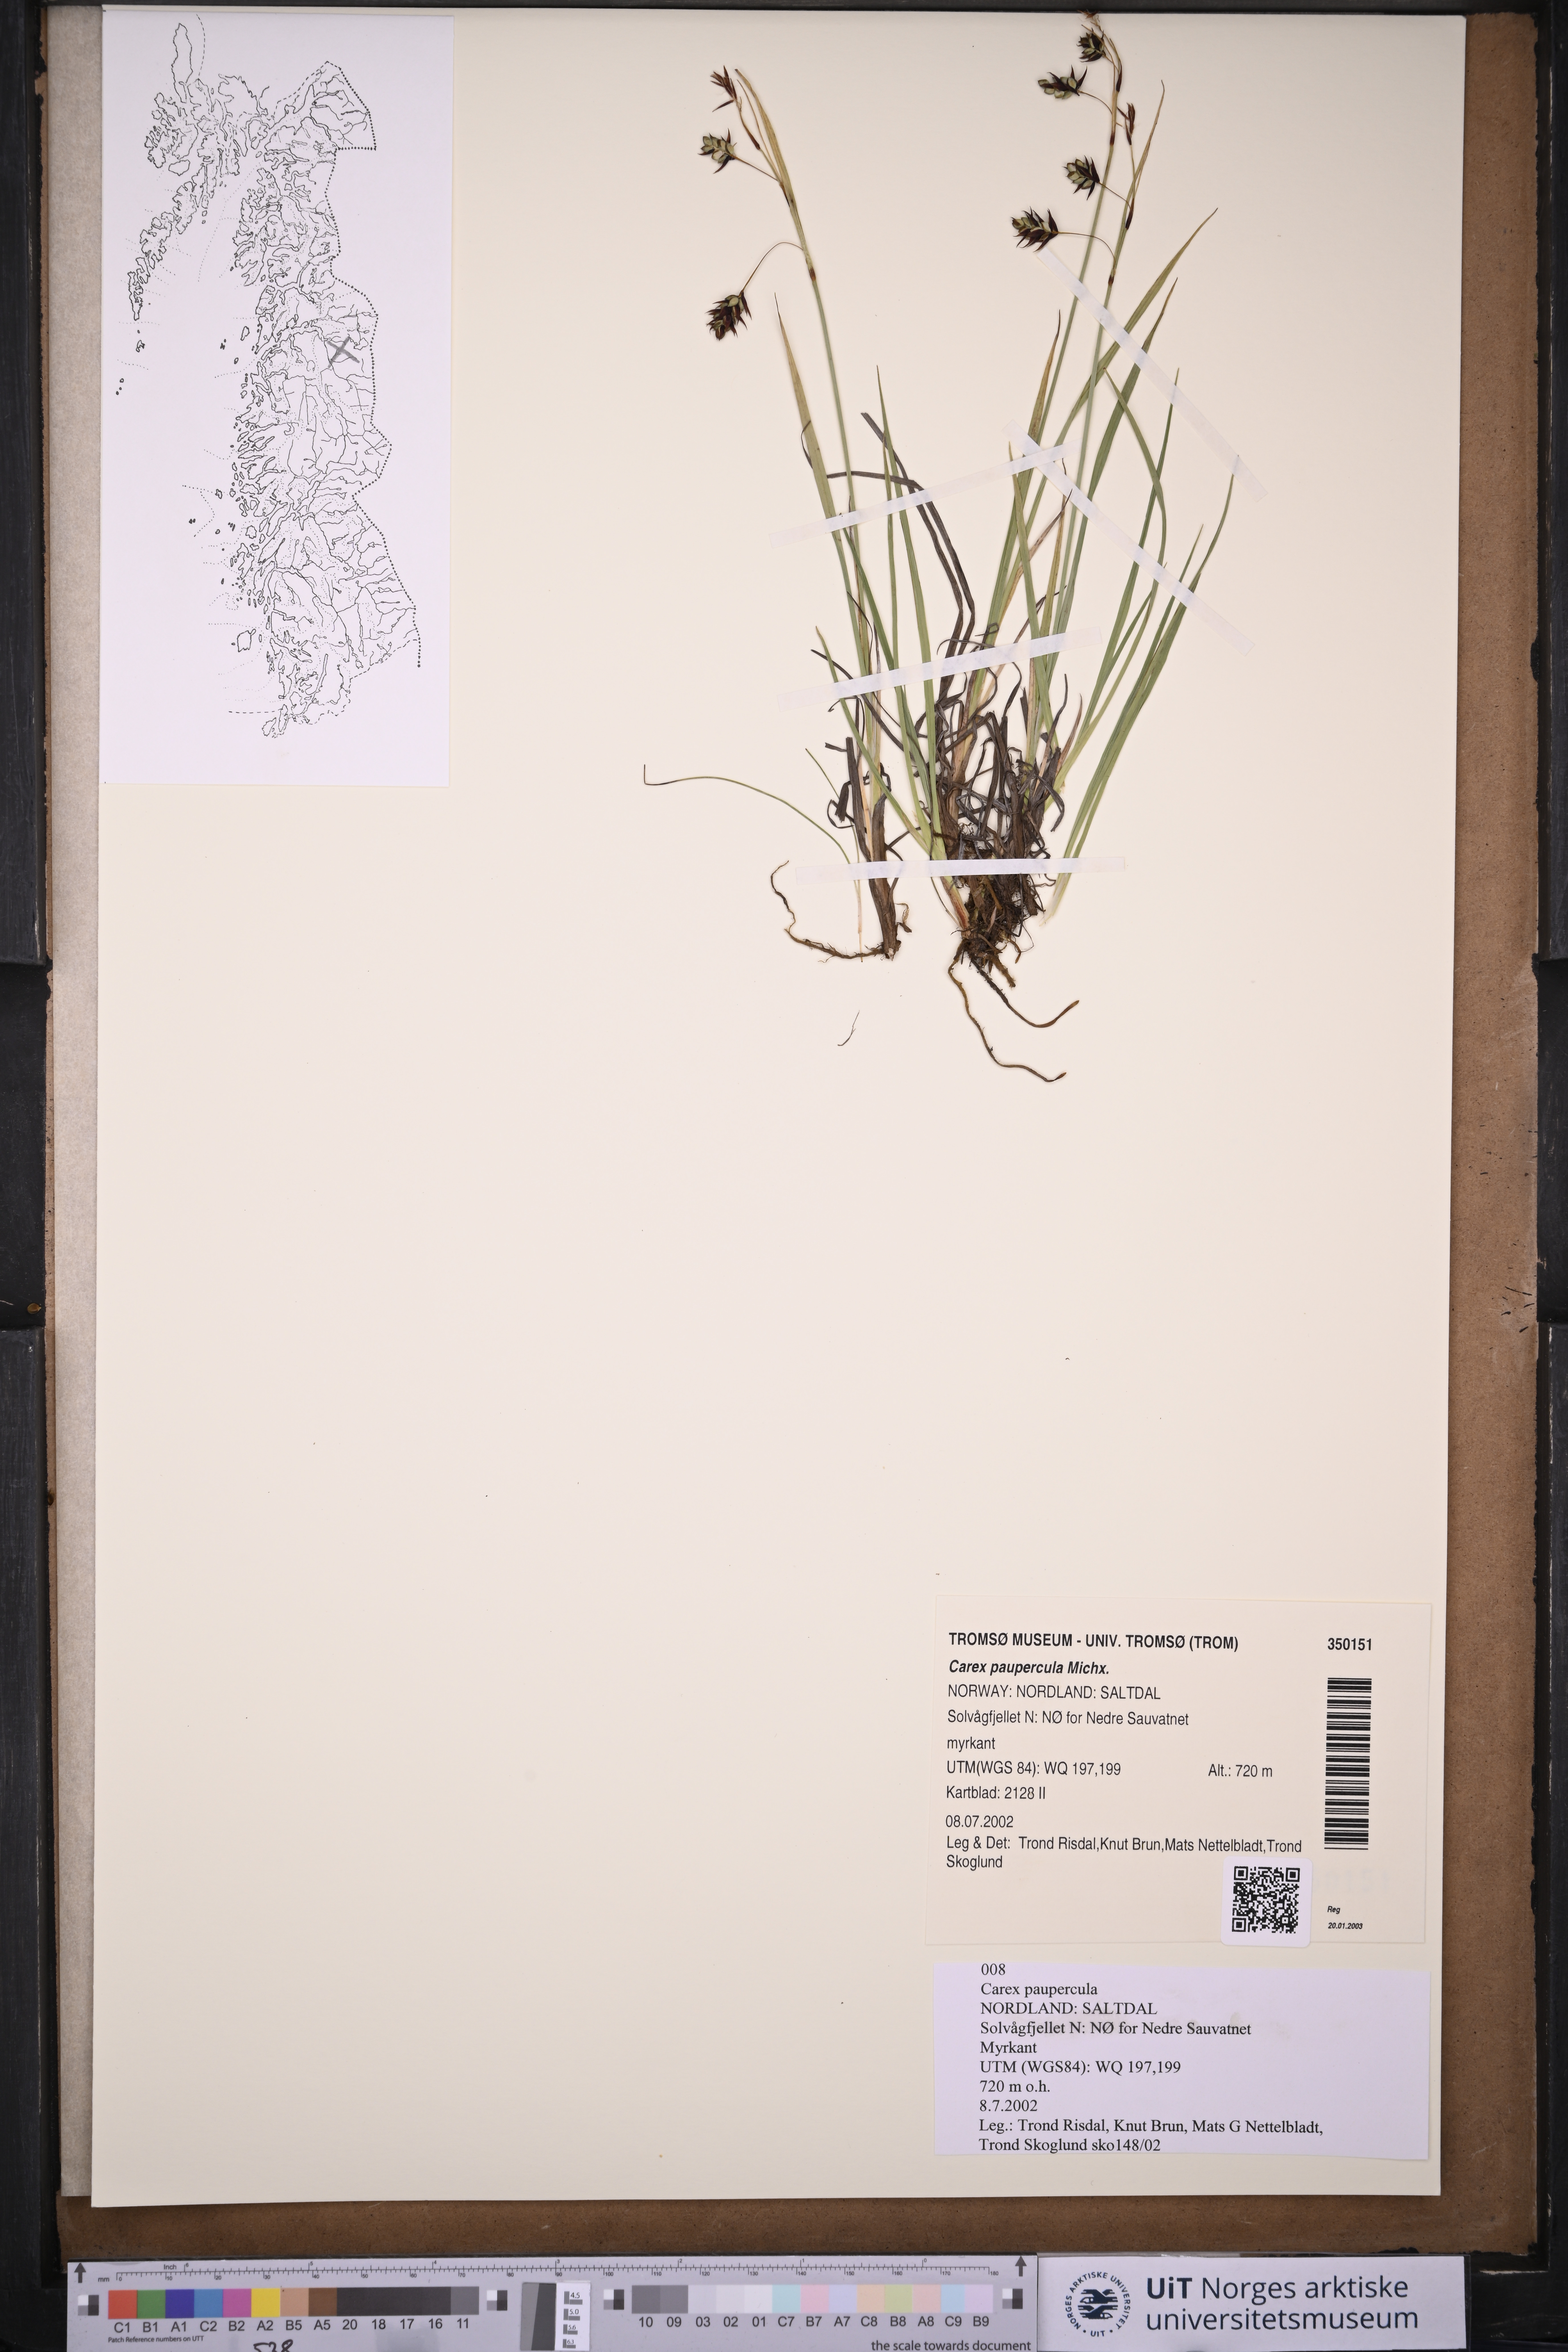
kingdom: Plantae
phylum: Tracheophyta
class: Liliopsida
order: Poales
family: Cyperaceae
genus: Carex
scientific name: Carex magellanica
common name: Bog sedge
